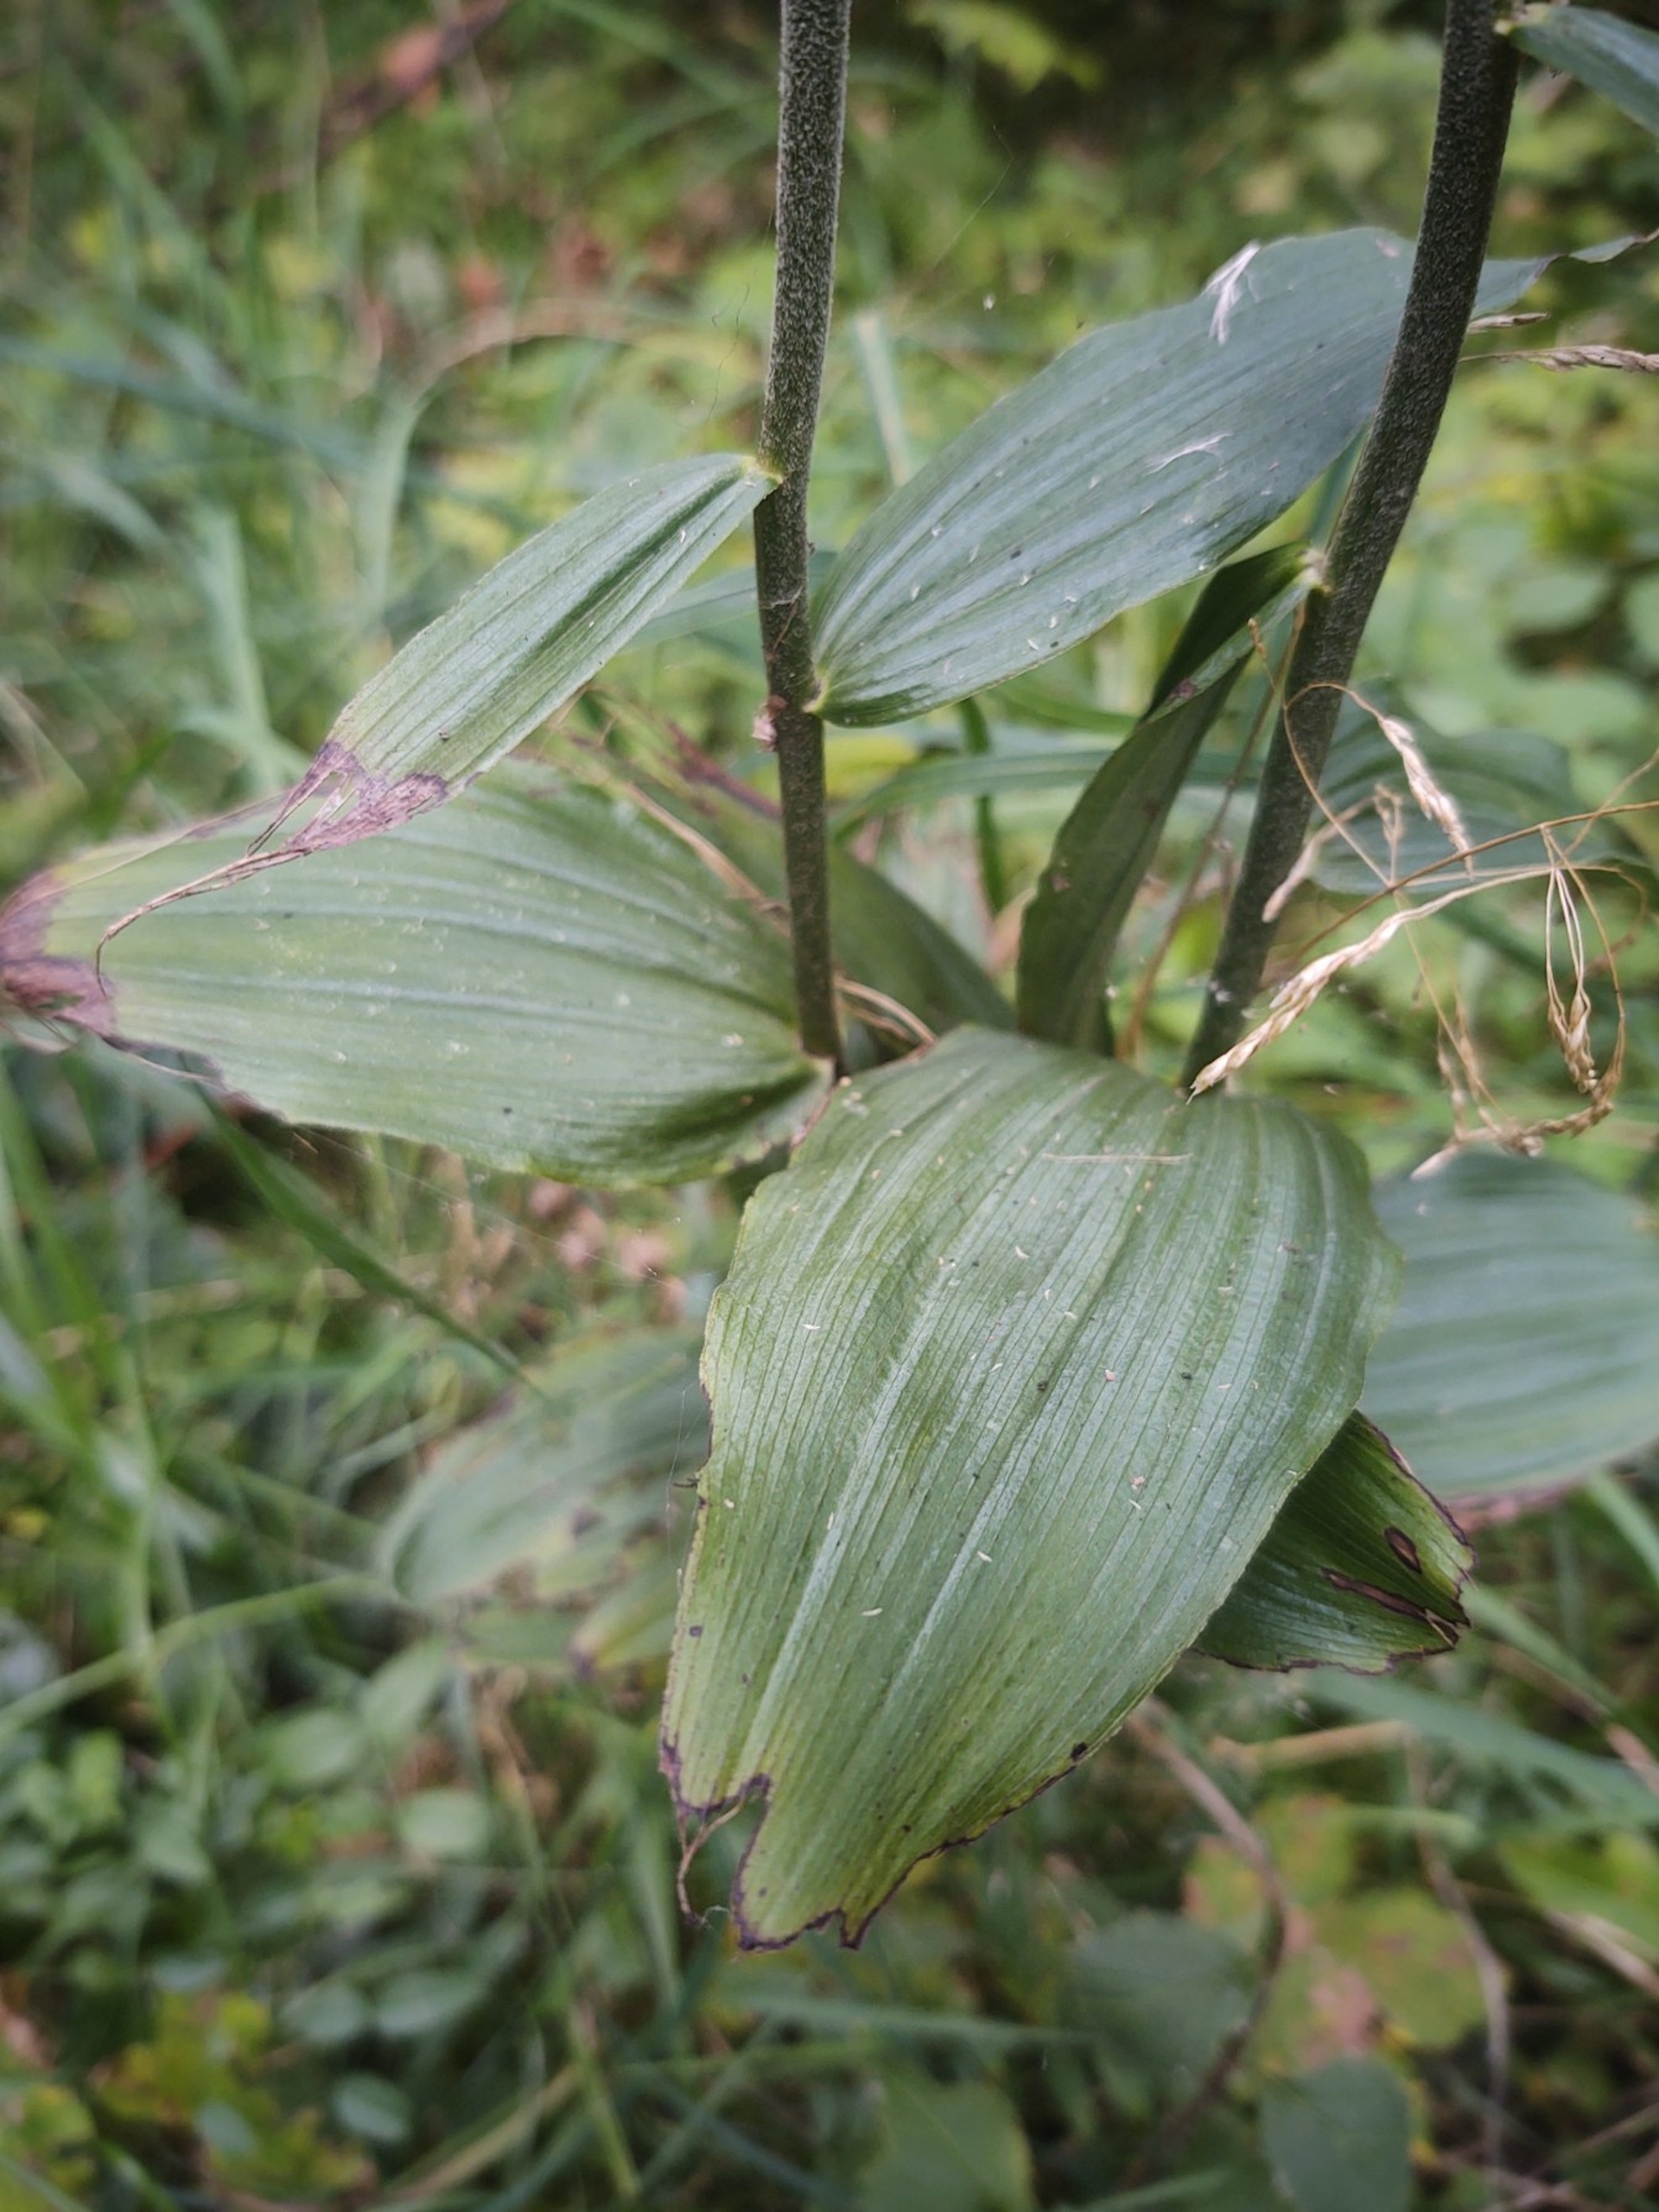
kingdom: Plantae
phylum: Tracheophyta
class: Liliopsida
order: Asparagales
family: Orchidaceae
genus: Epipactis
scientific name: Epipactis helleborine
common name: Skov-hullæbe
